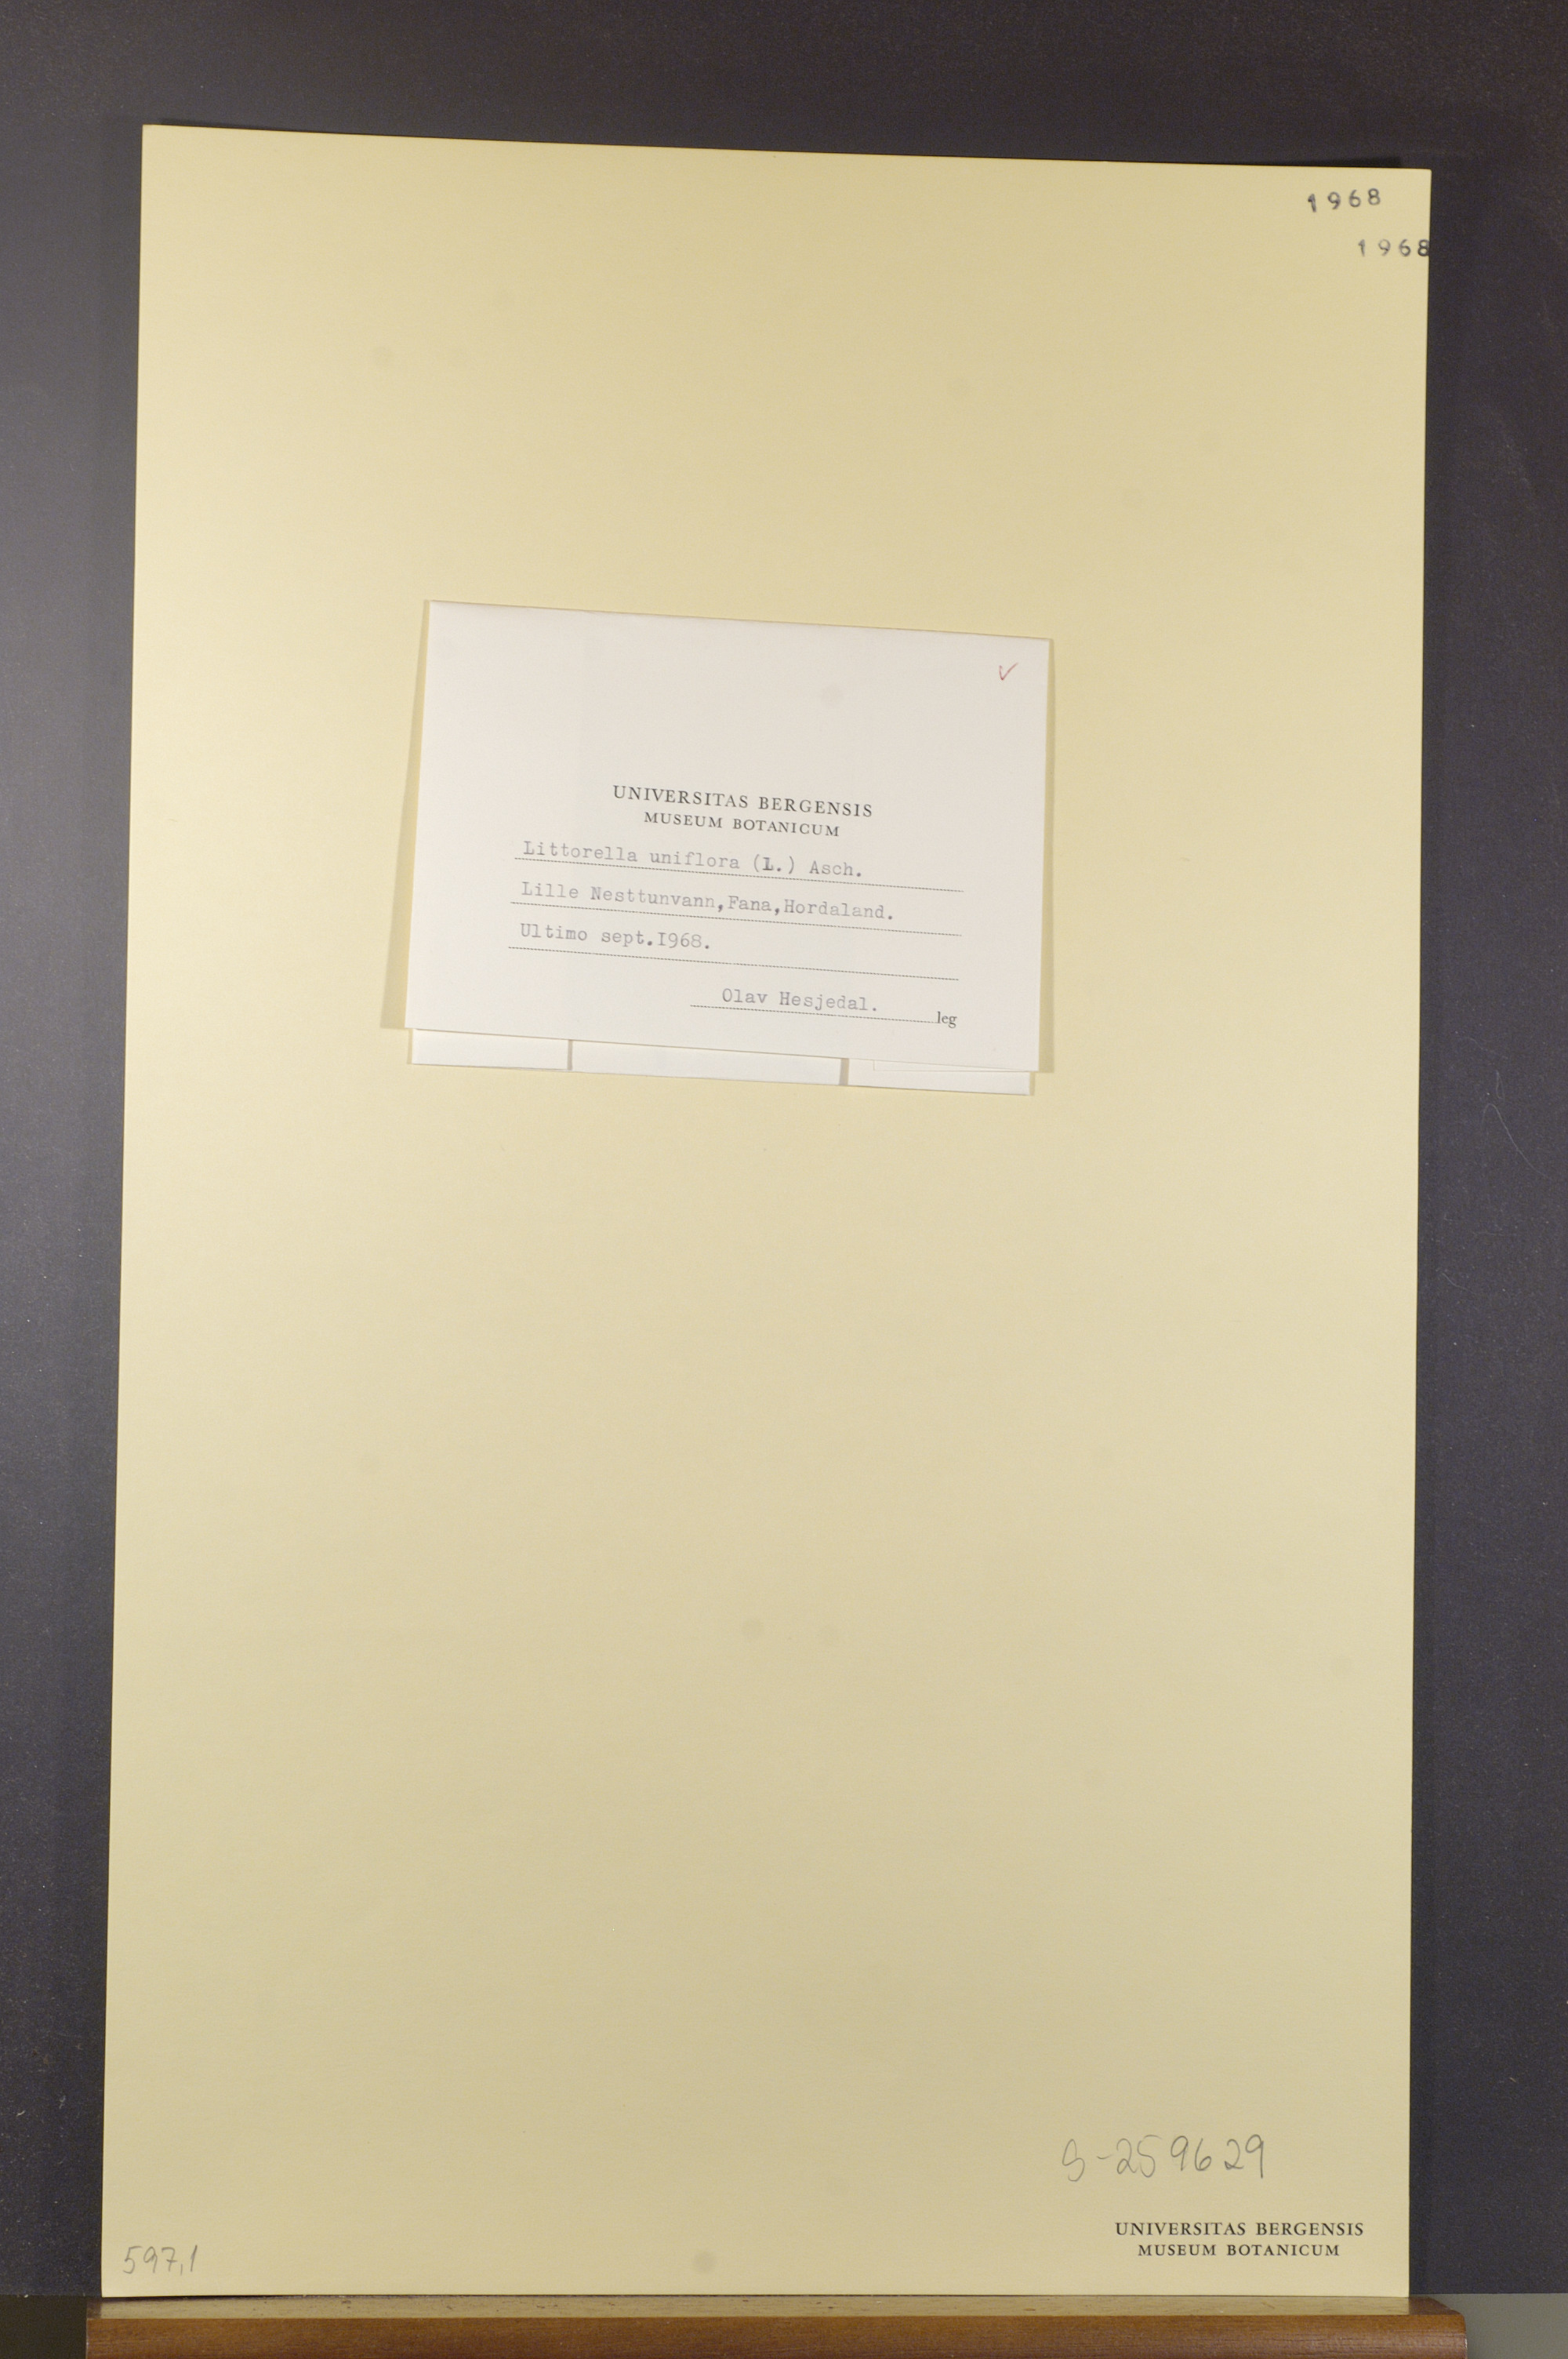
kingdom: Plantae
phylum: Tracheophyta
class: Magnoliopsida
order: Lamiales
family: Plantaginaceae
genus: Littorella
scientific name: Littorella uniflora
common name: Shoreweed
